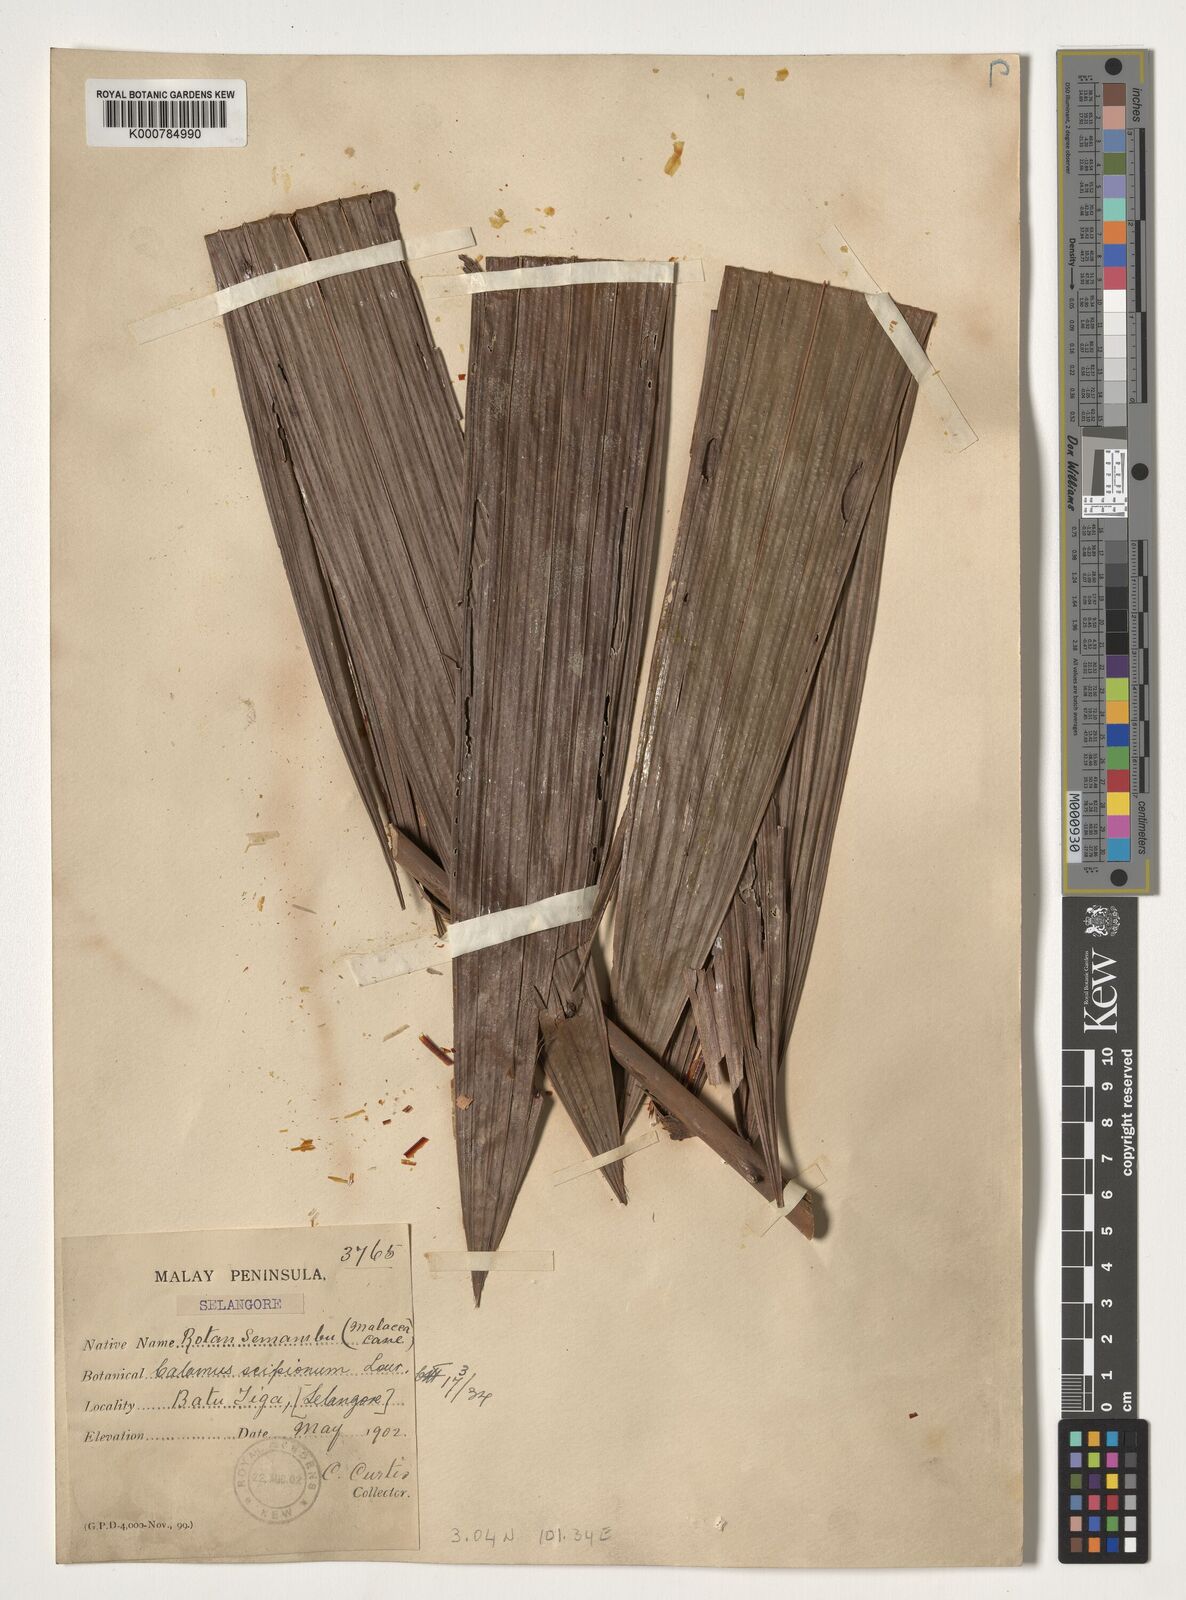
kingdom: Plantae
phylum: Tracheophyta
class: Liliopsida
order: Arecales
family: Arecaceae
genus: Calamus
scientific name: Calamus scipionum
